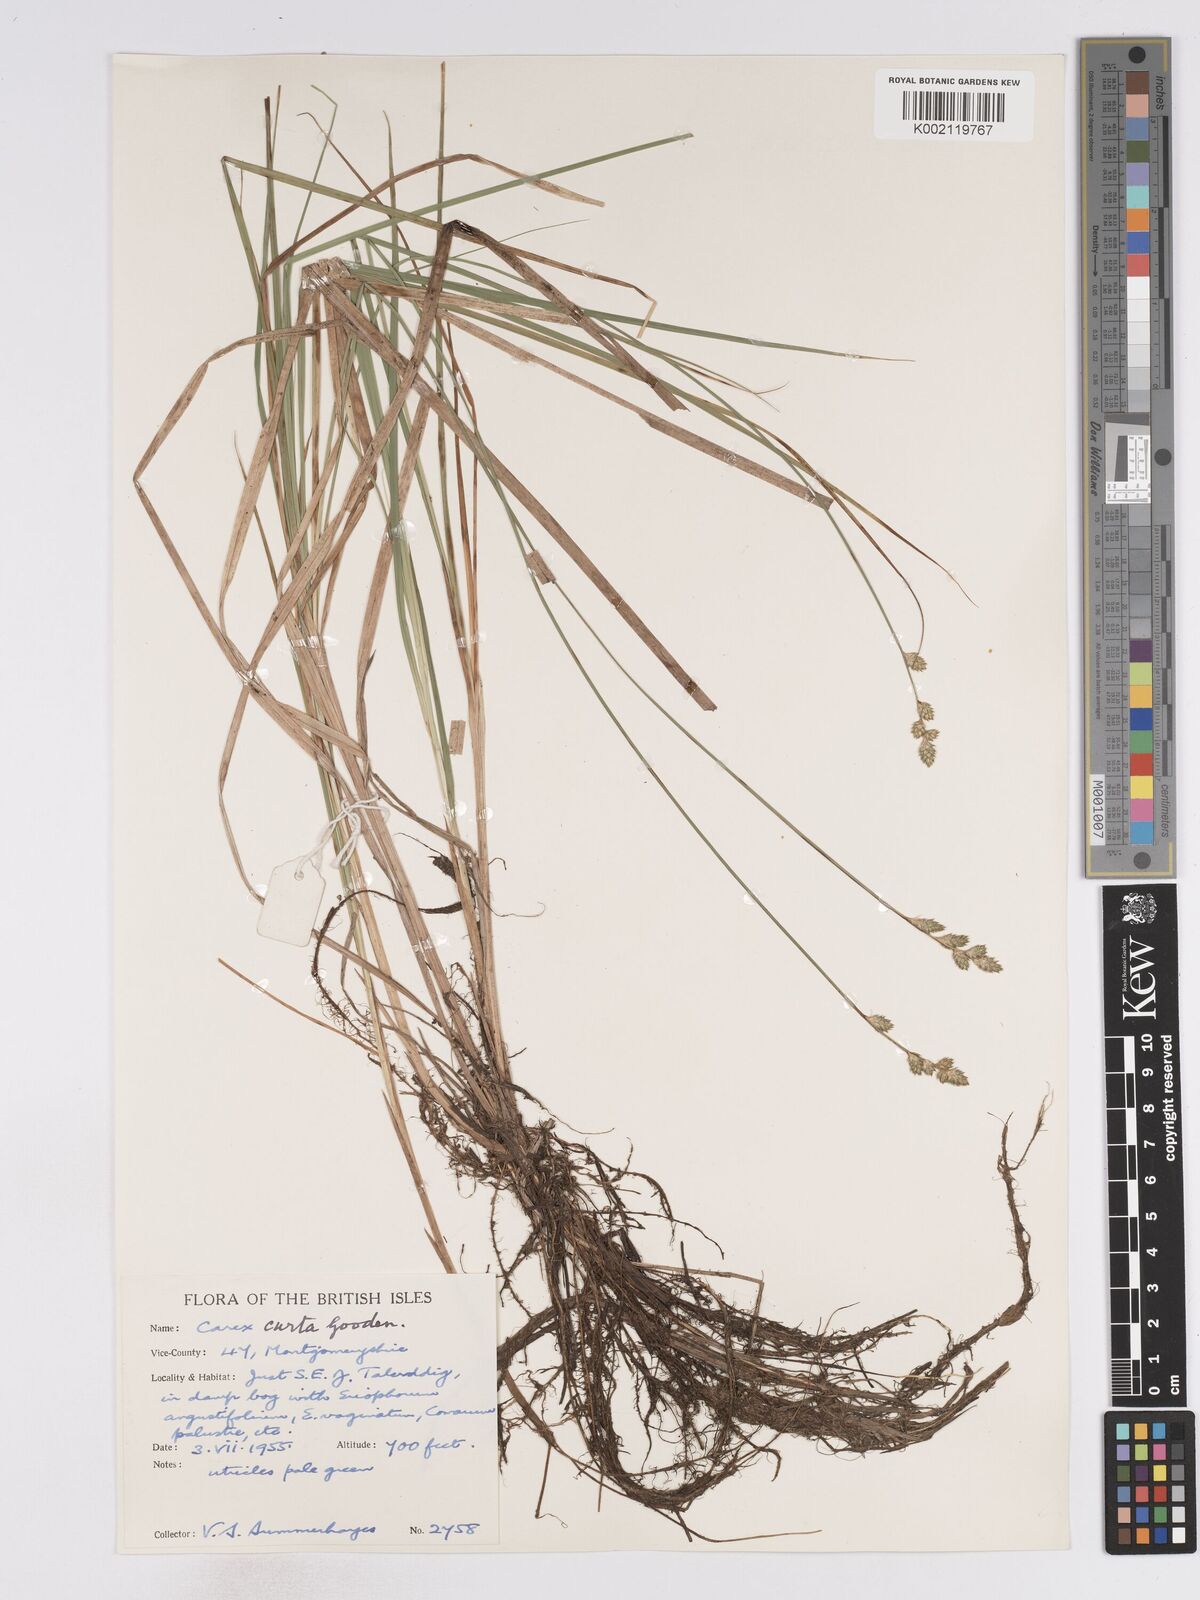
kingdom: Plantae
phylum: Tracheophyta
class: Liliopsida
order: Poales
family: Cyperaceae
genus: Carex
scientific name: Carex curta
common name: White sedge
